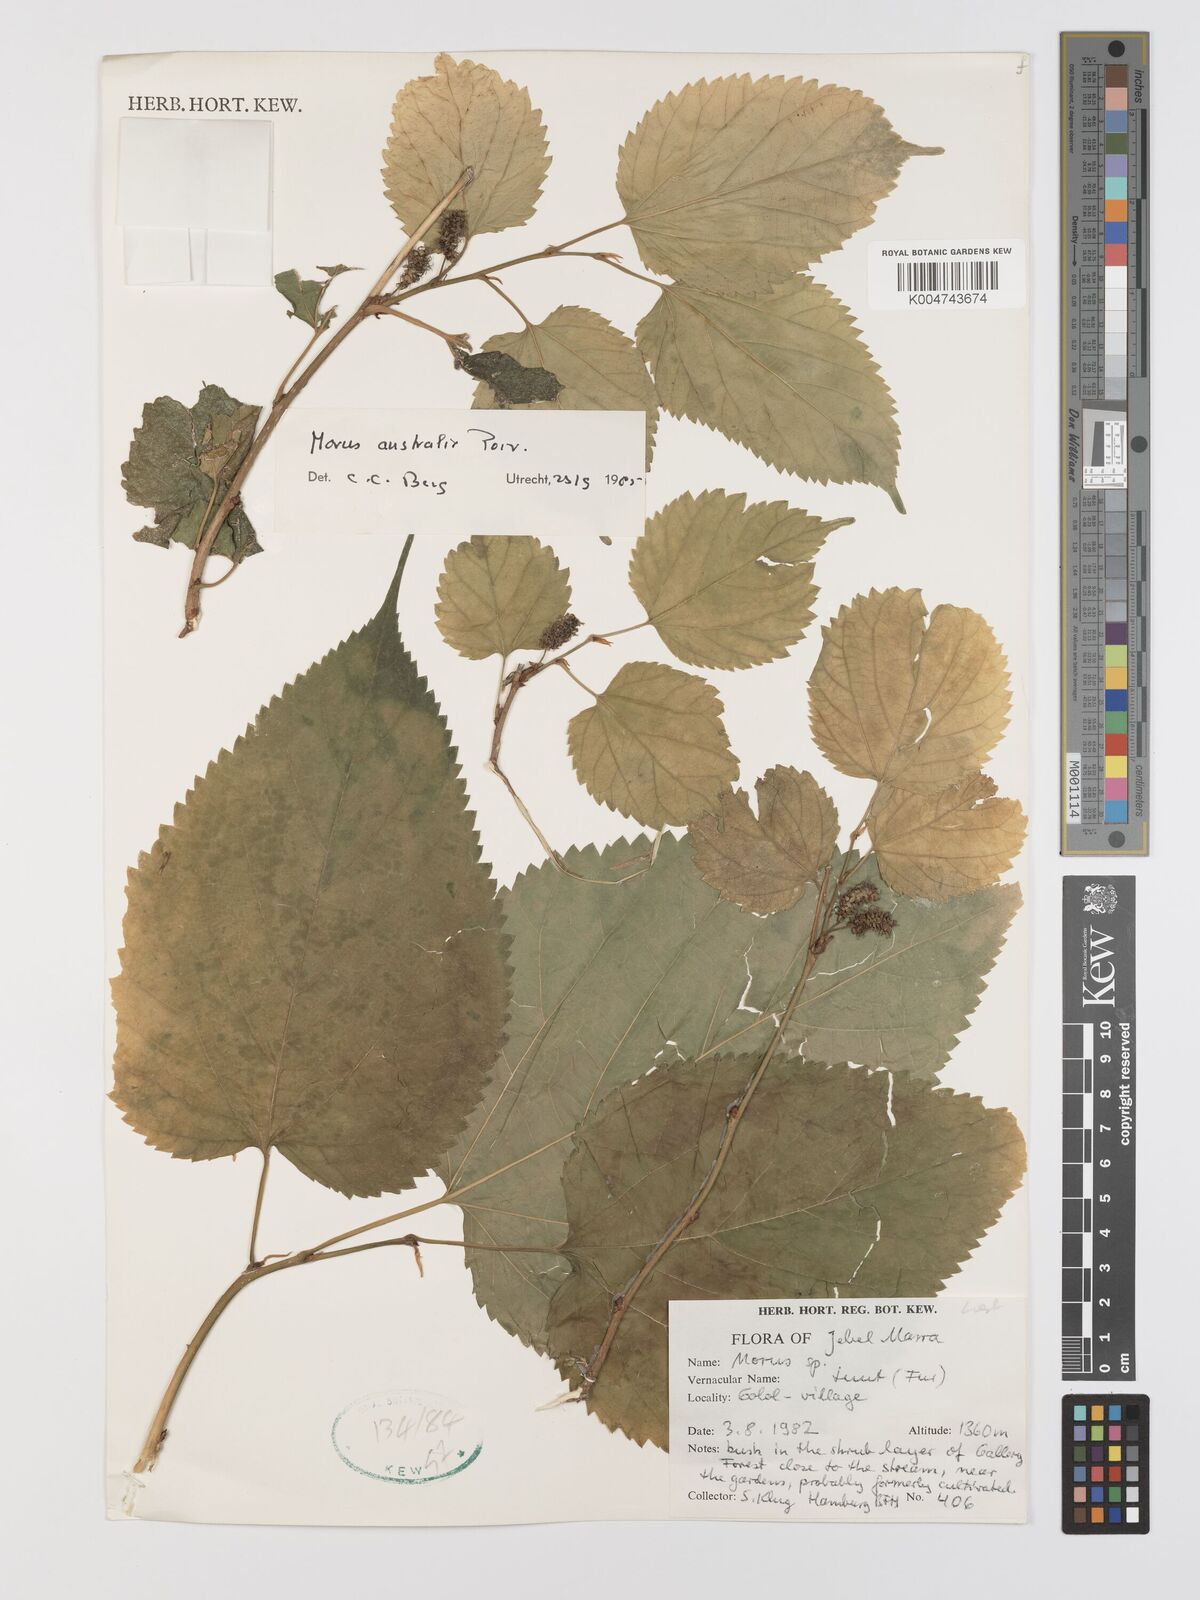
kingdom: Plantae
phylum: Tracheophyta
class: Magnoliopsida
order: Rosales
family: Moraceae
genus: Broussonetia
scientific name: Broussonetia papyrifera
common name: Paper mulberry
